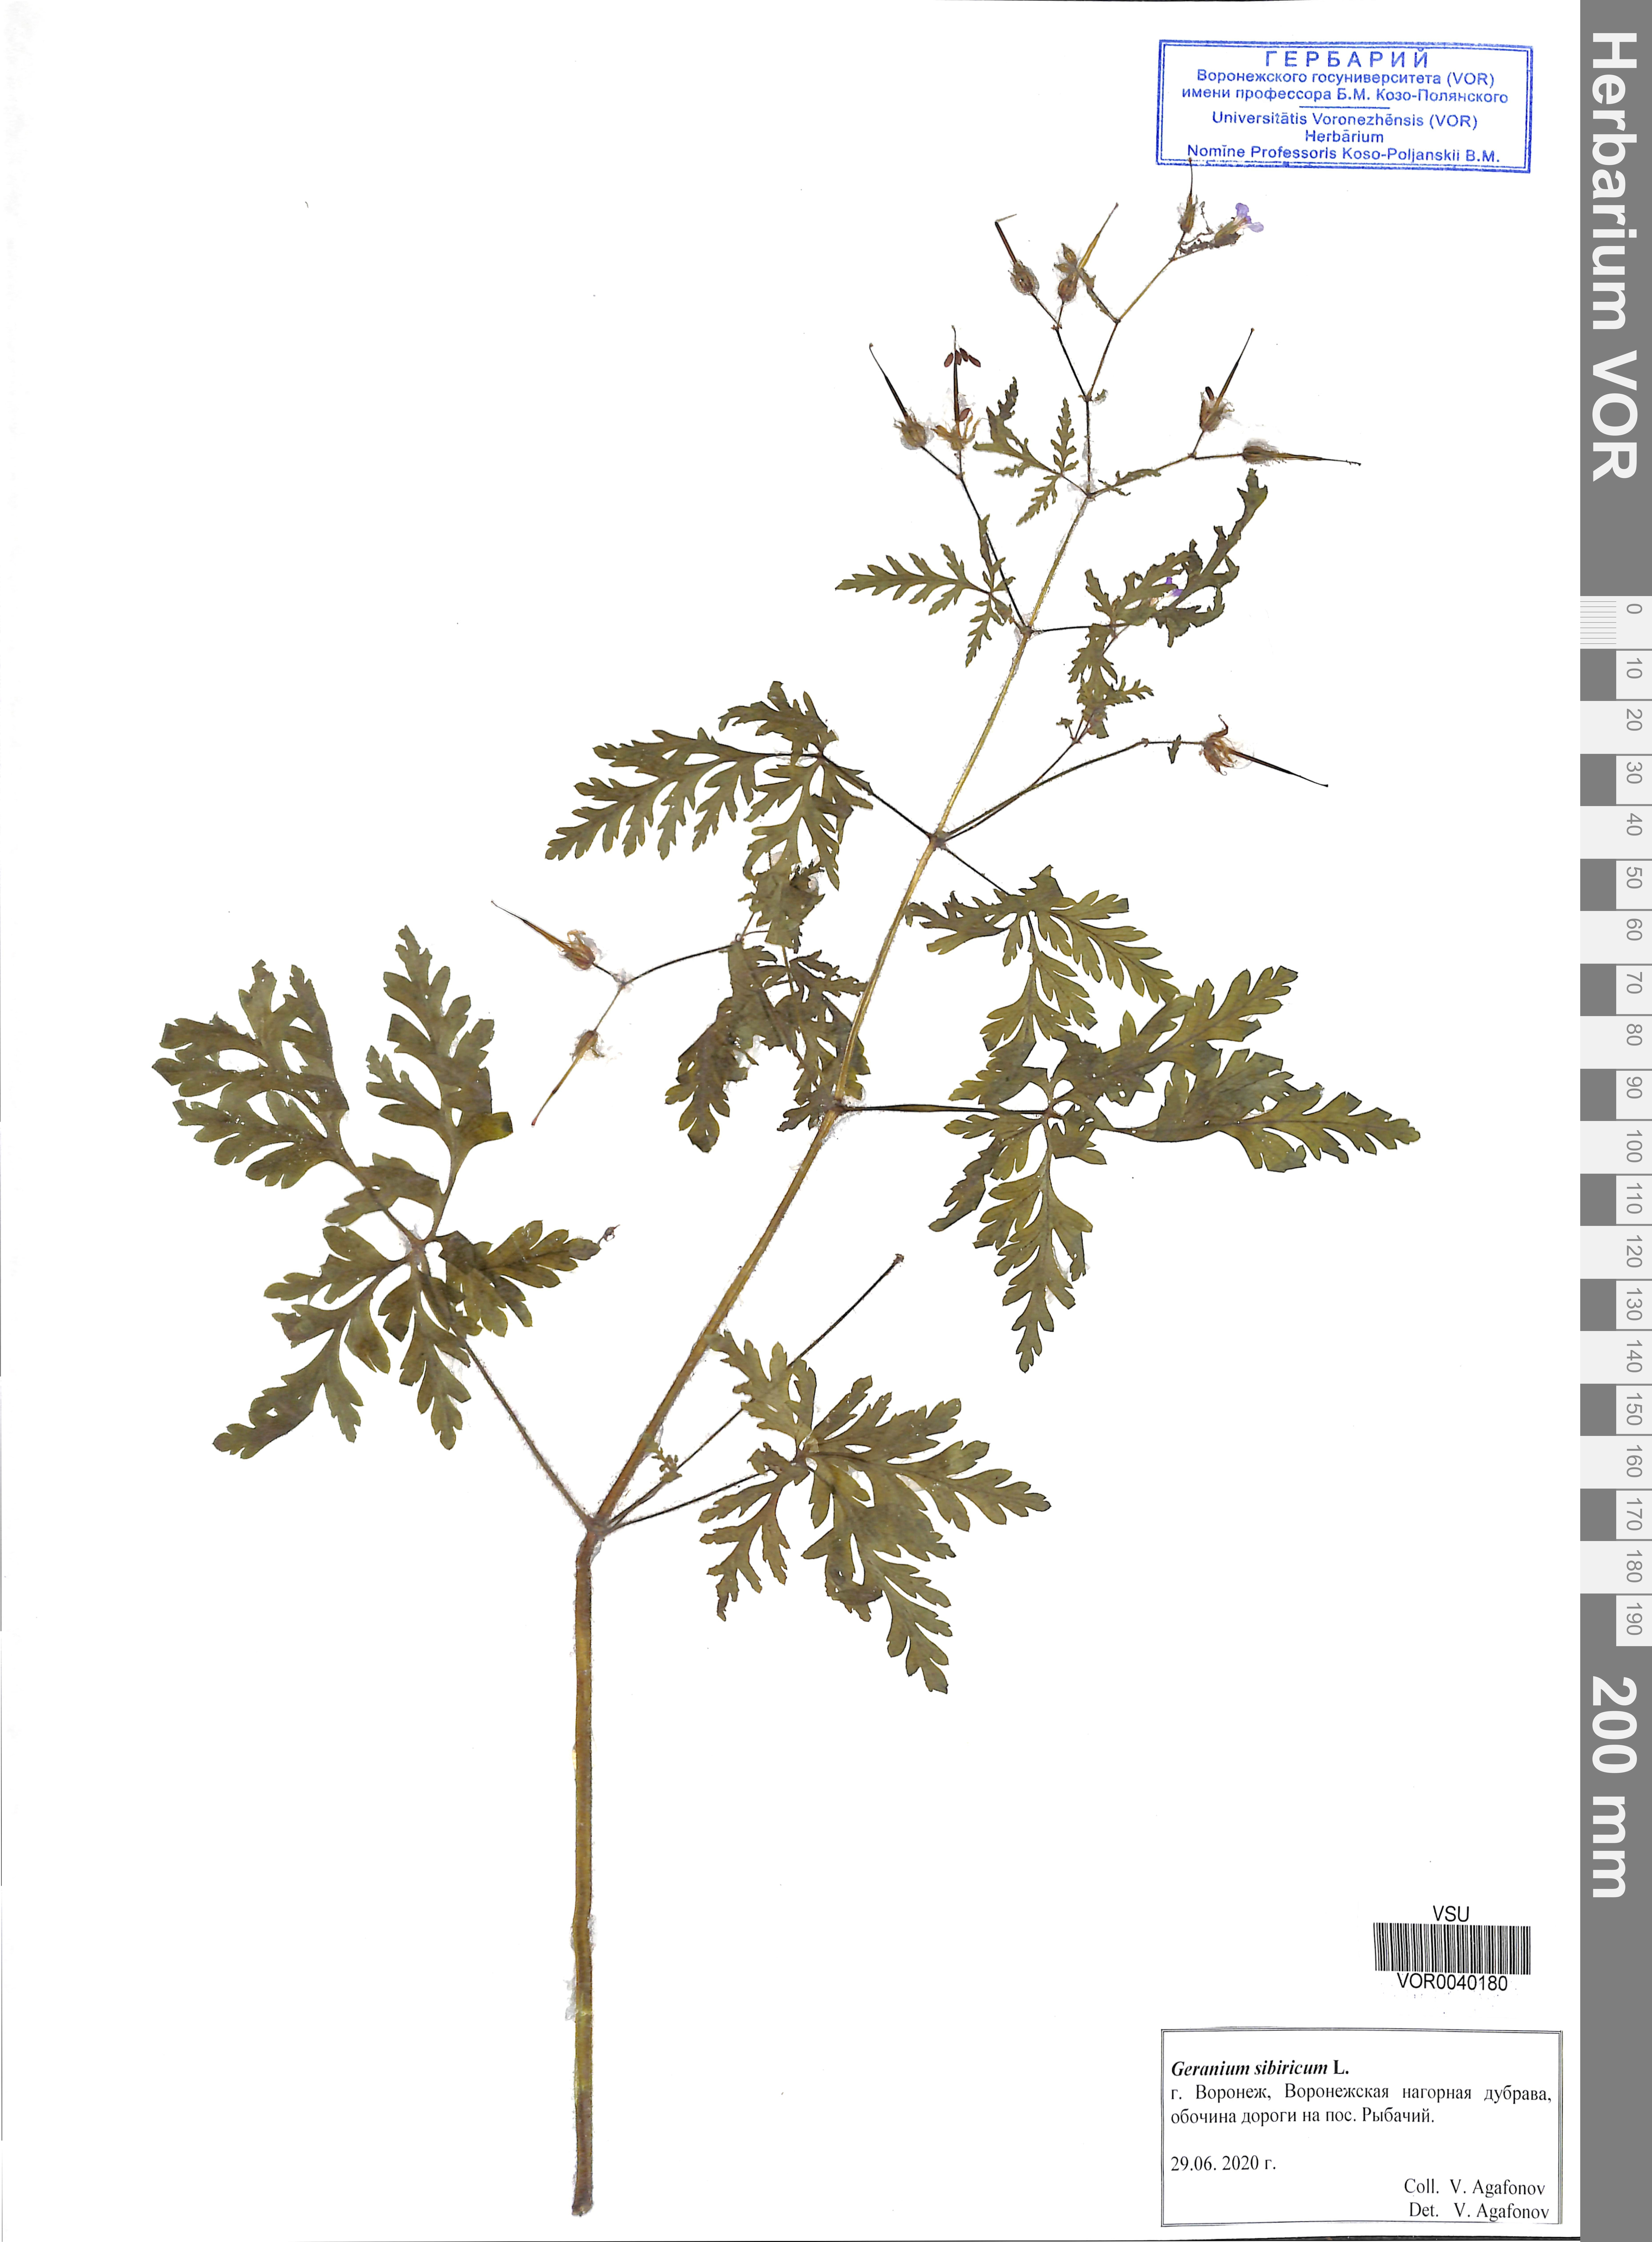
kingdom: Plantae
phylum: Tracheophyta
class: Magnoliopsida
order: Geraniales
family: Geraniaceae
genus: Geranium
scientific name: Geranium sibiricum
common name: Siberian crane's-bill
